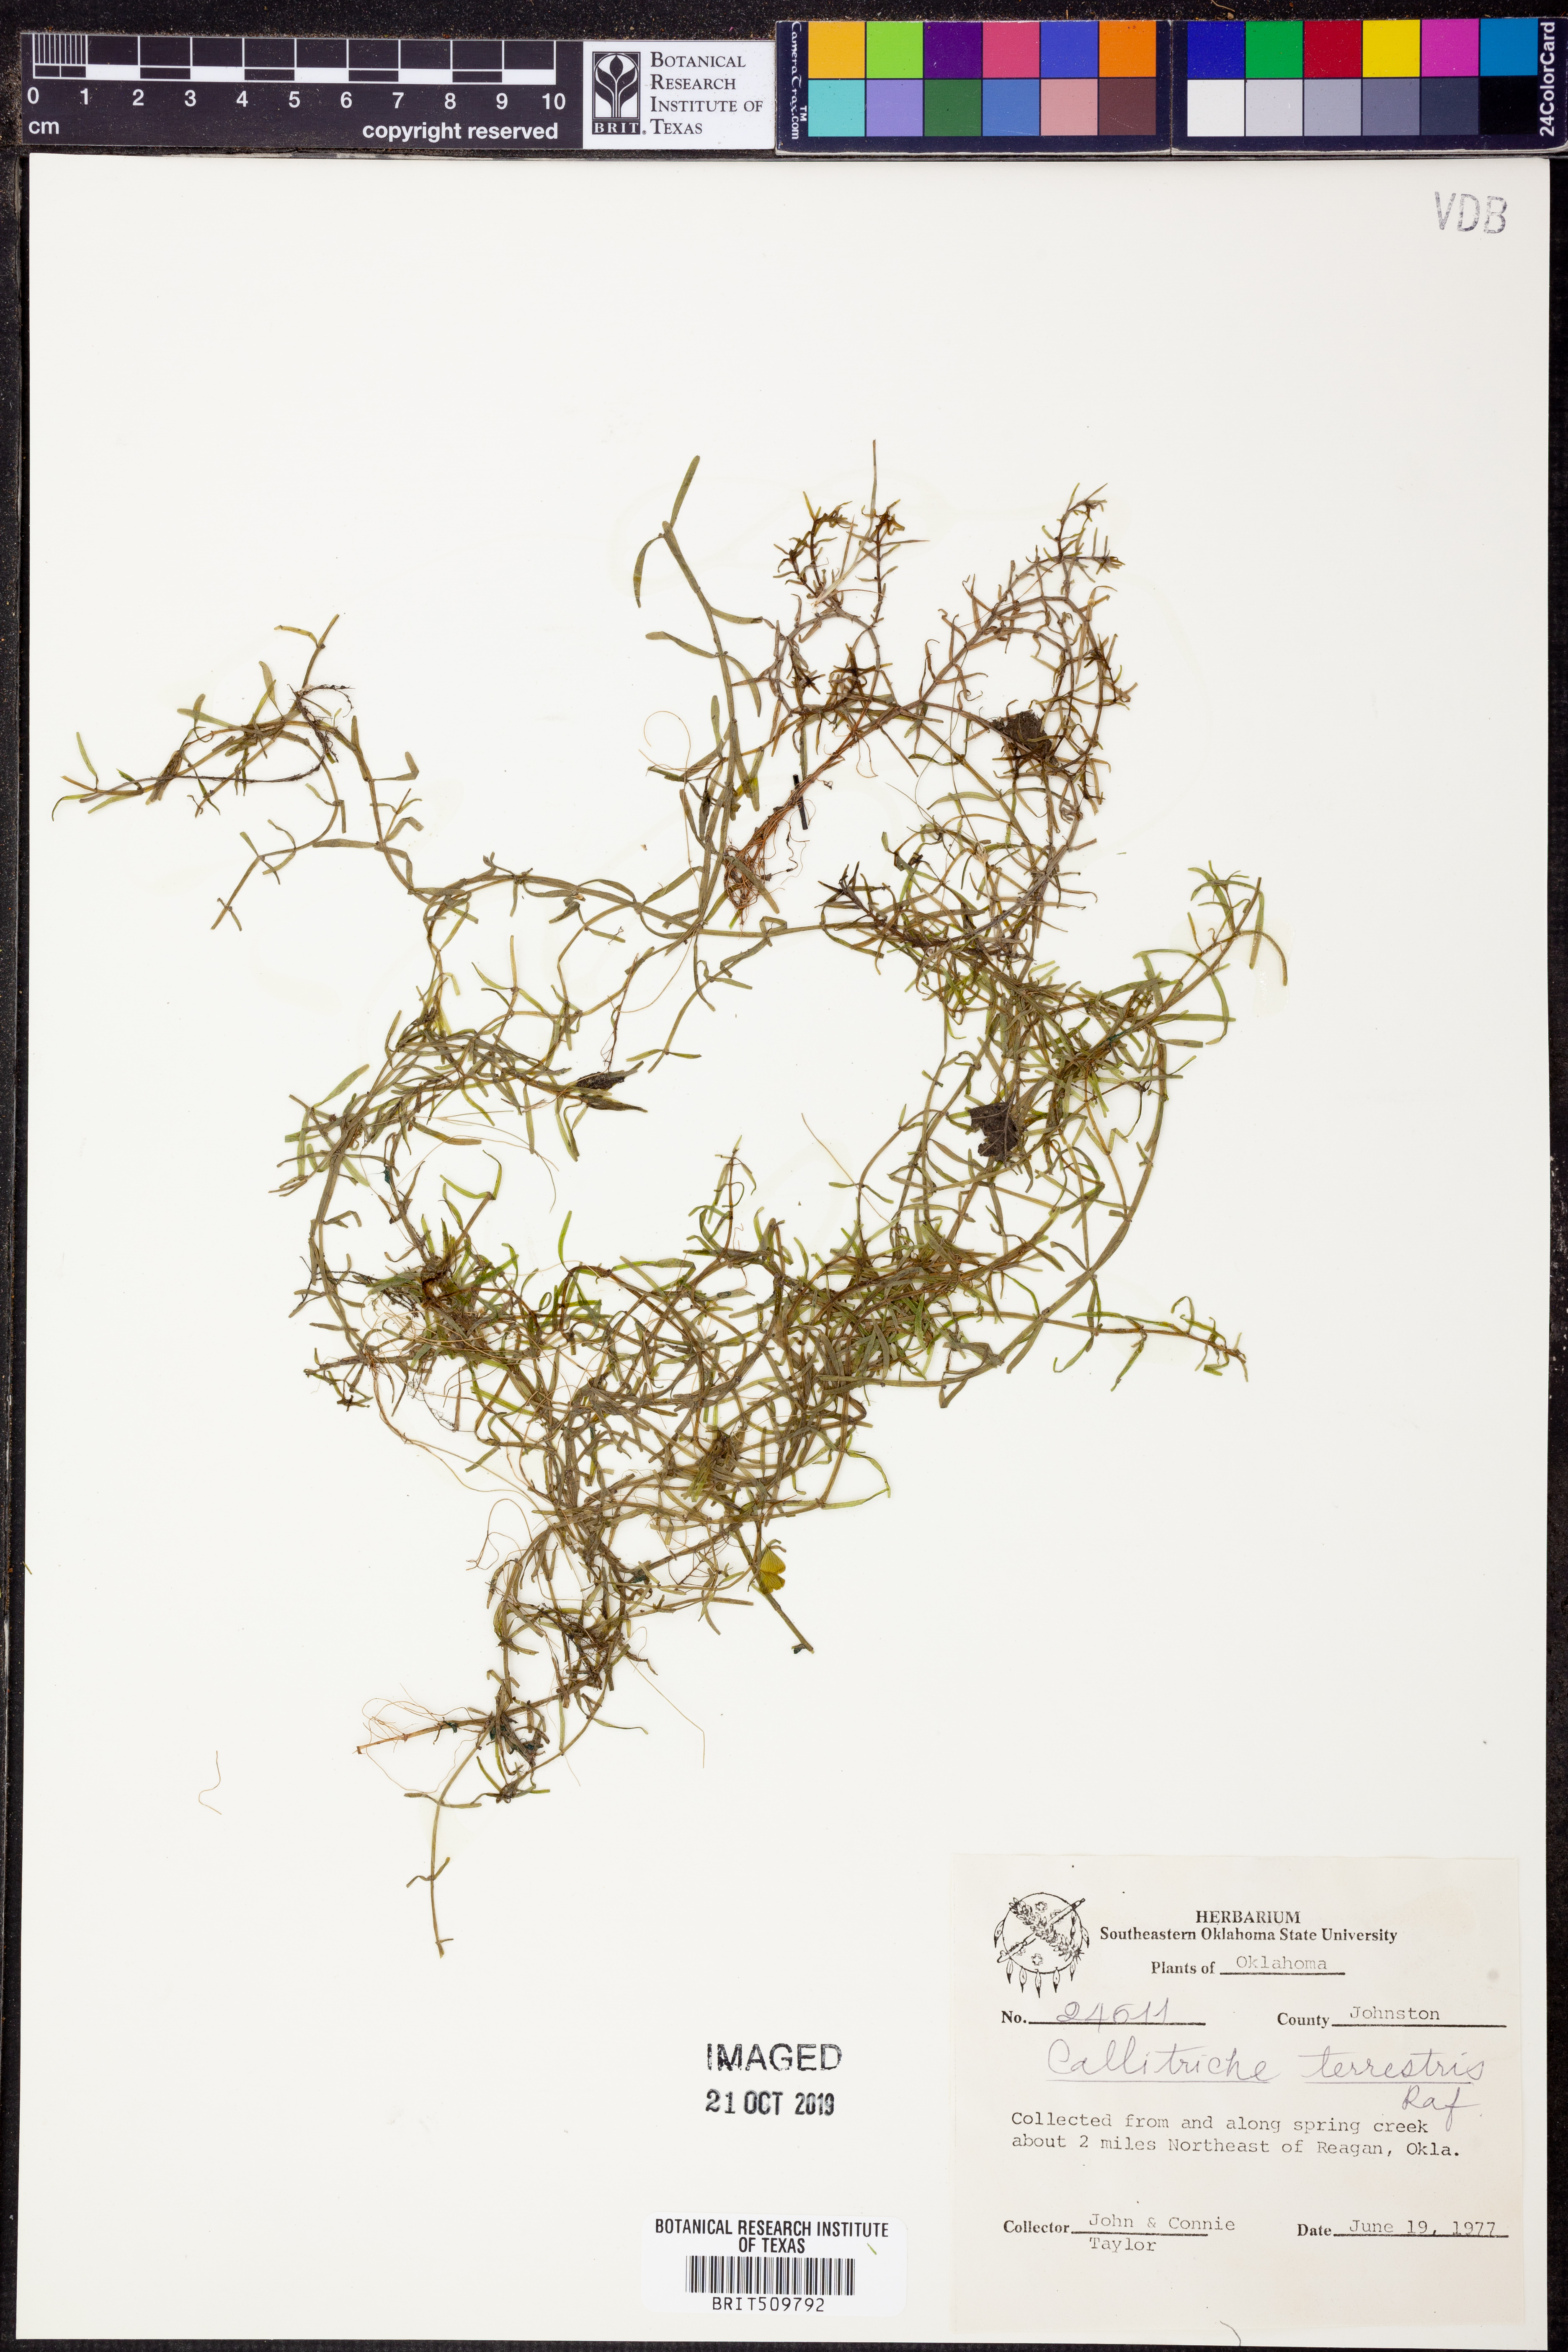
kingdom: Plantae
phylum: Tracheophyta
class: Magnoliopsida
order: Lamiales
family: Plantaginaceae
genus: Callitriche
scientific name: Callitriche terrestris
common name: Terrestrial water-starwort
